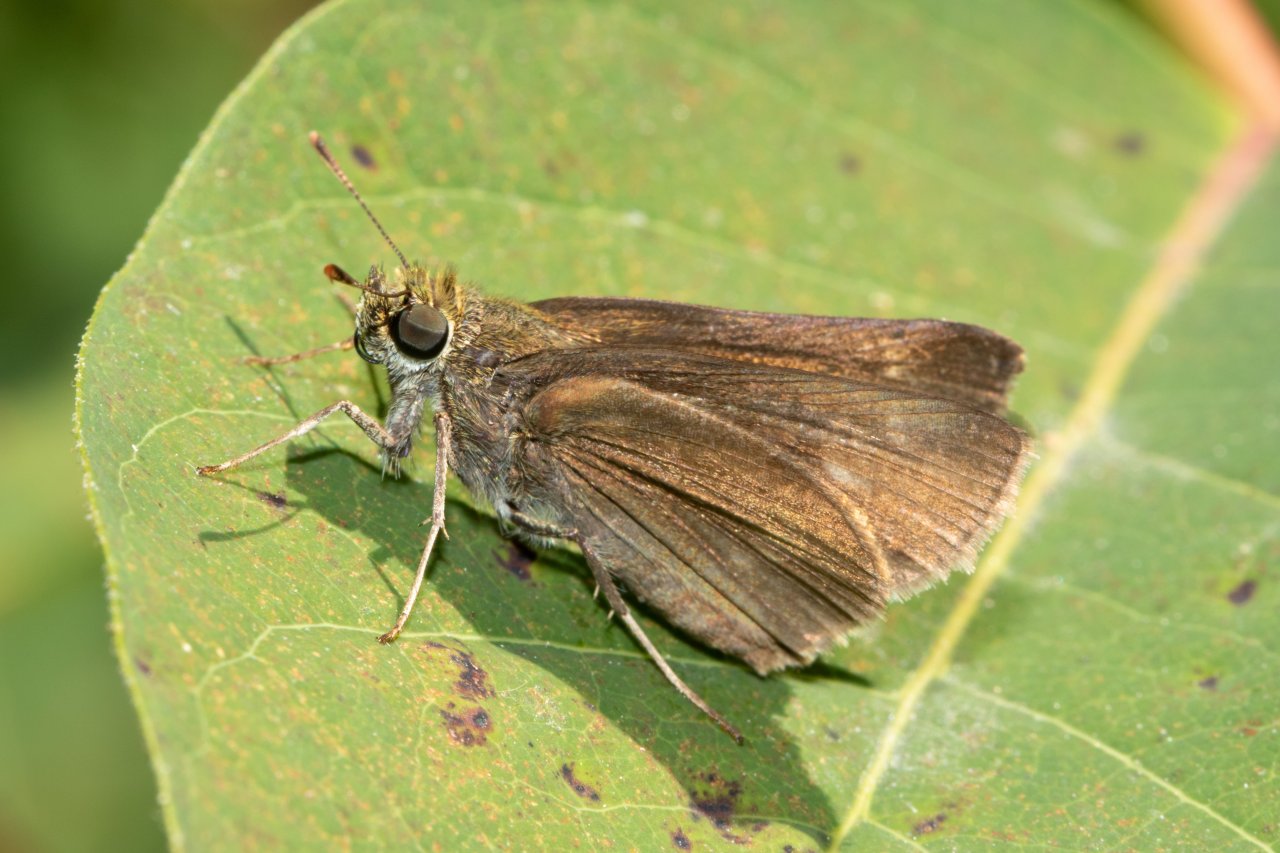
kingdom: Animalia
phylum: Arthropoda
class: Insecta
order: Lepidoptera
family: Hesperiidae
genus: Euphyes
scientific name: Euphyes vestris
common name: Dun Skipper
